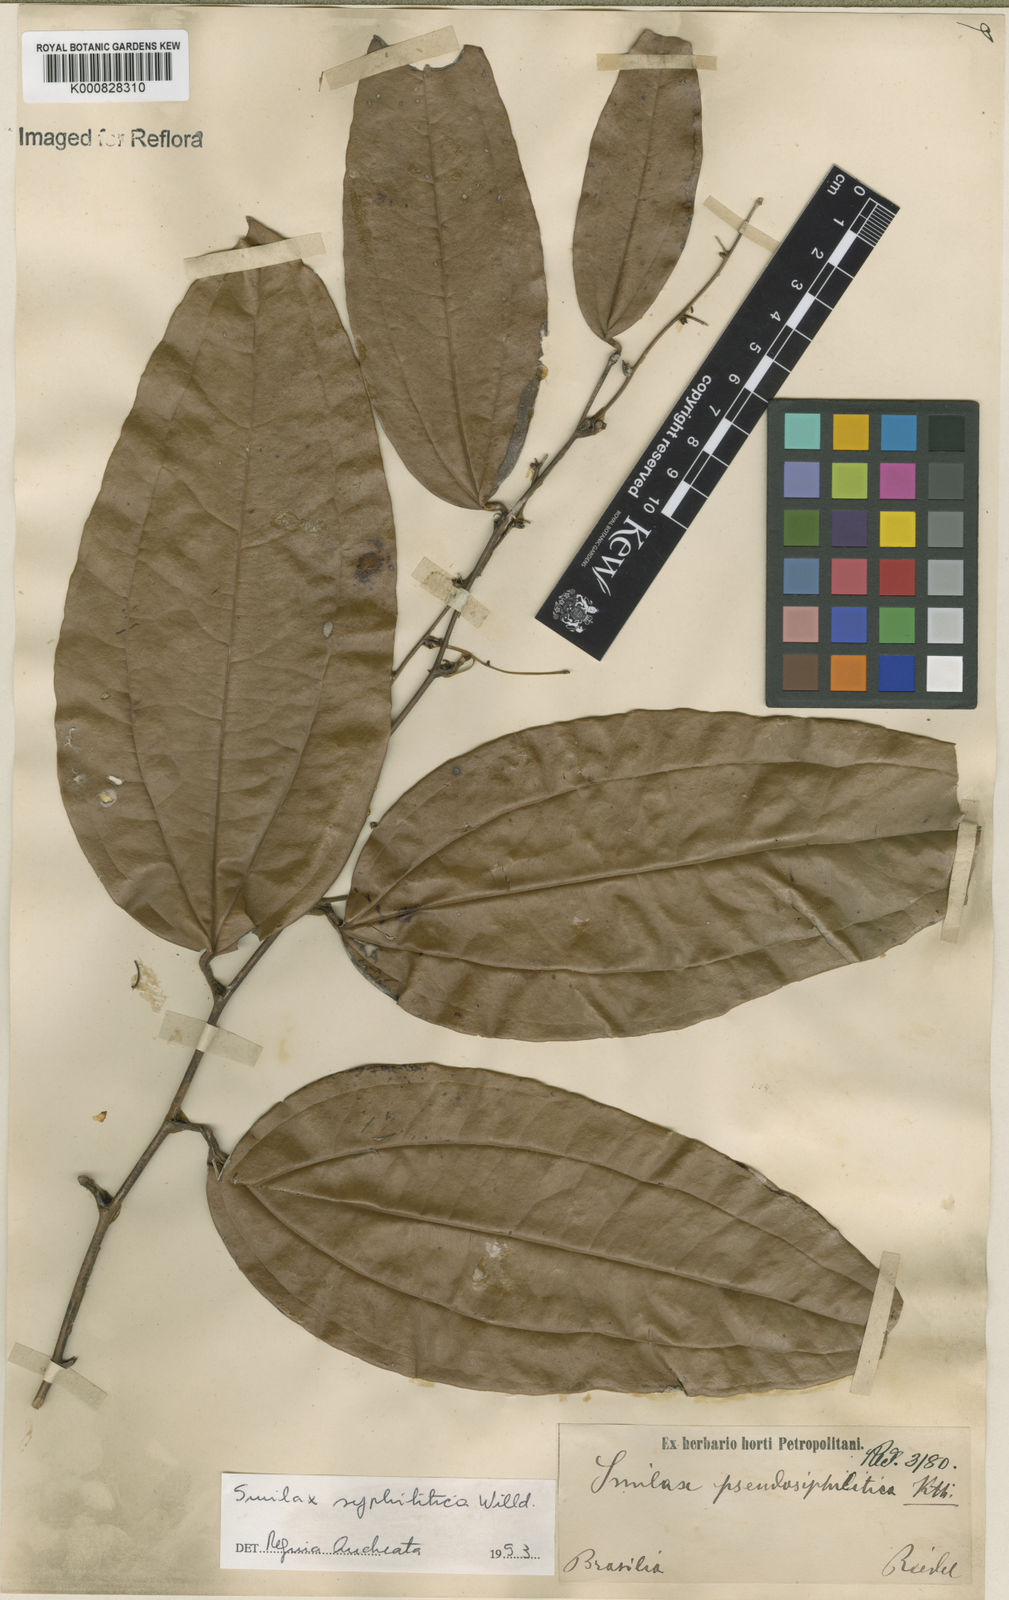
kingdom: Plantae
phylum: Tracheophyta
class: Liliopsida
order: Liliales
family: Smilacaceae
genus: Smilax
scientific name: Smilax siphilitica
